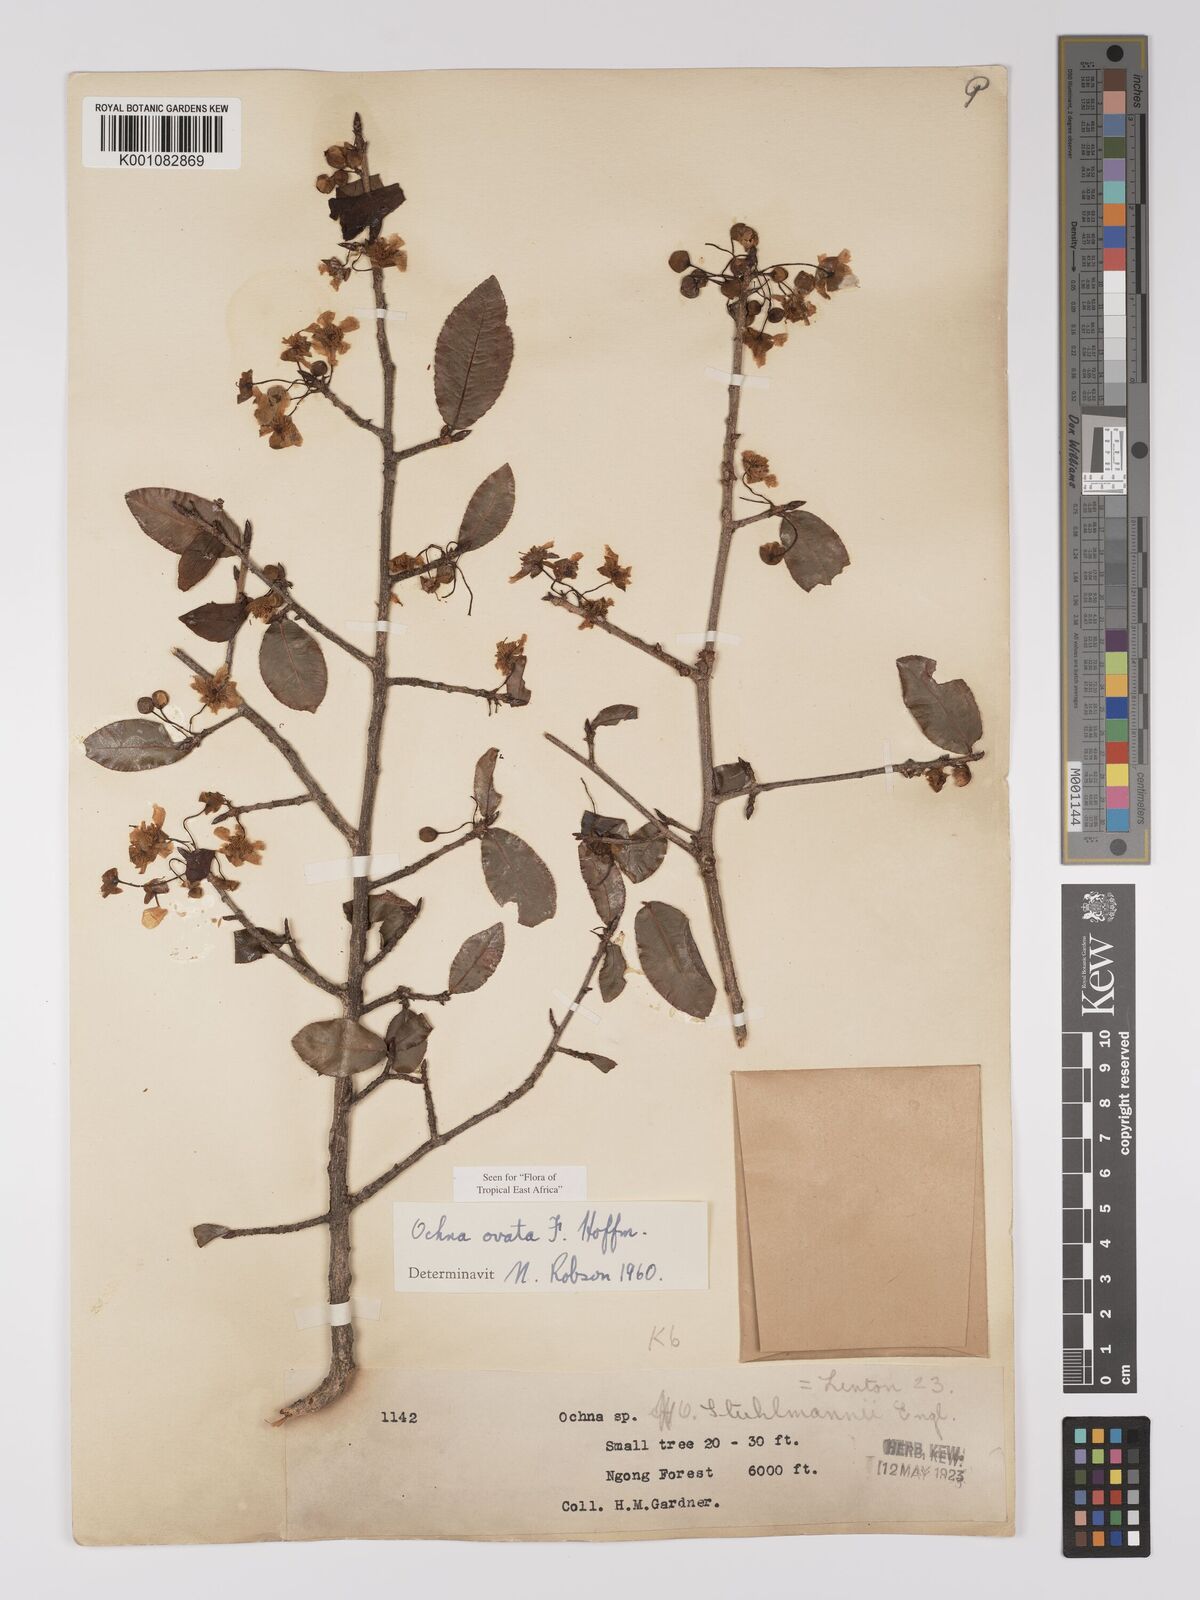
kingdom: Plantae
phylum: Tracheophyta
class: Magnoliopsida
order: Malpighiales
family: Ochnaceae
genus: Ochna
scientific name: Ochna ovata
